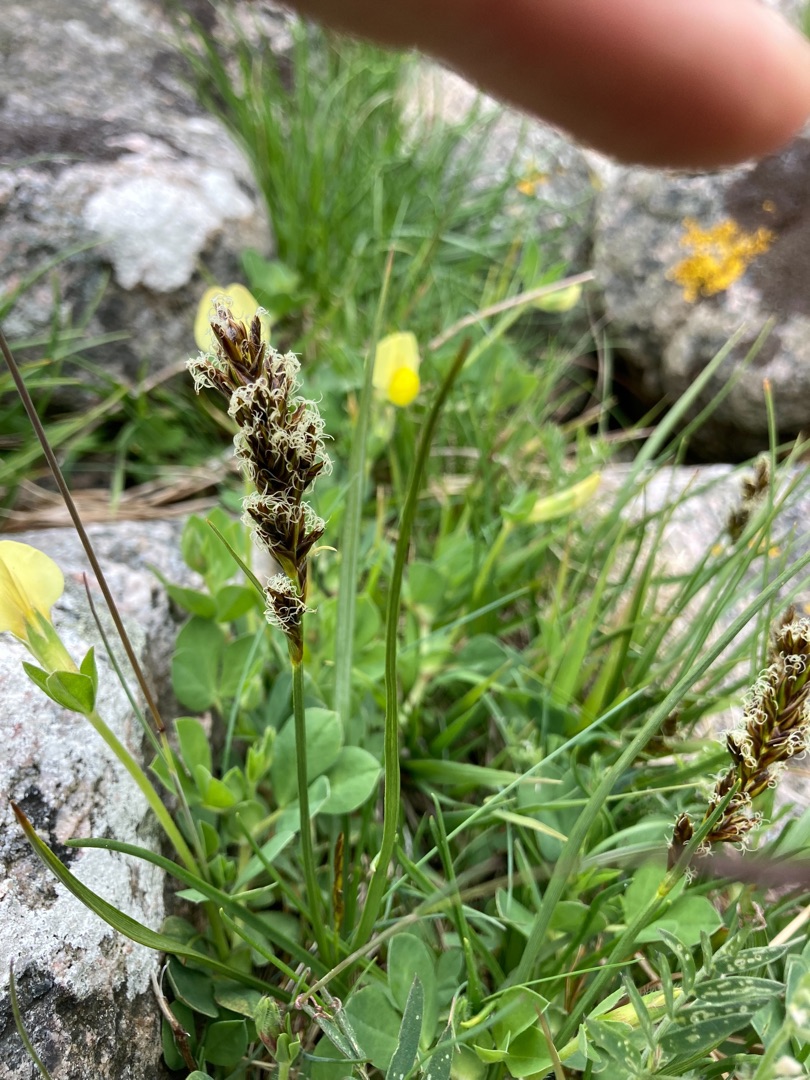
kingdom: Plantae
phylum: Tracheophyta
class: Liliopsida
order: Poales
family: Cyperaceae
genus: Blysmus
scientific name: Blysmus compressus
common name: Fladtrykt kogleaks
